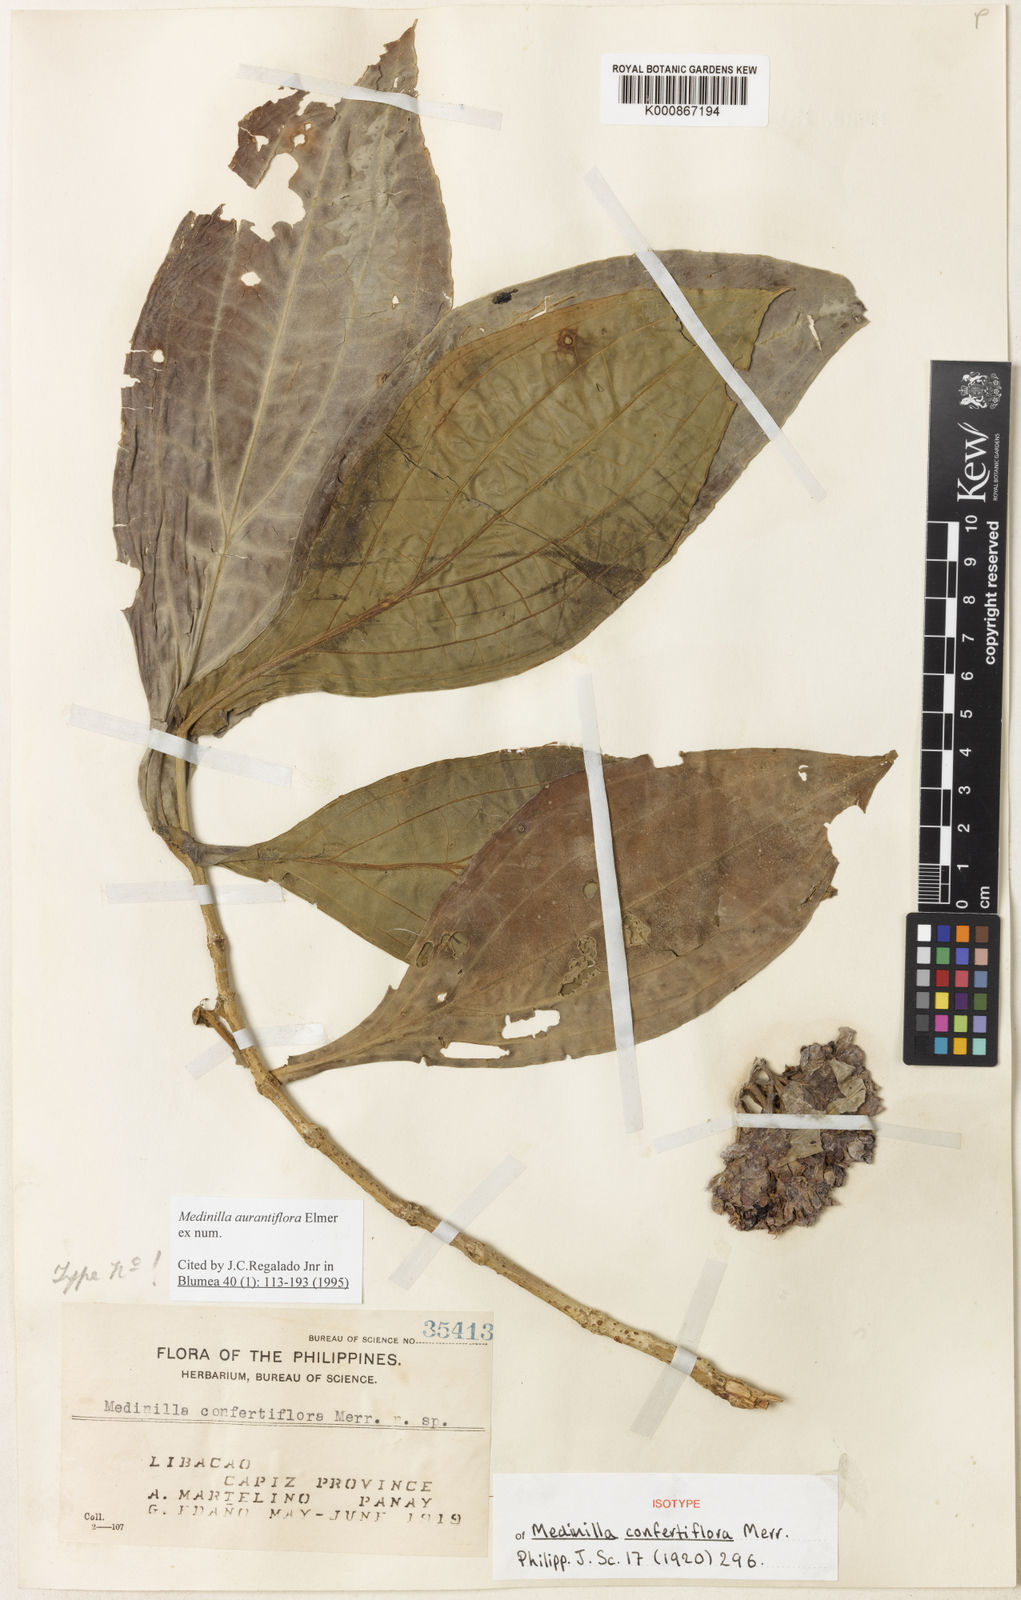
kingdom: Plantae
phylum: Tracheophyta
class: Magnoliopsida
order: Myrtales
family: Melastomataceae
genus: Medinilla
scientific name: Medinilla aurantiiflora
